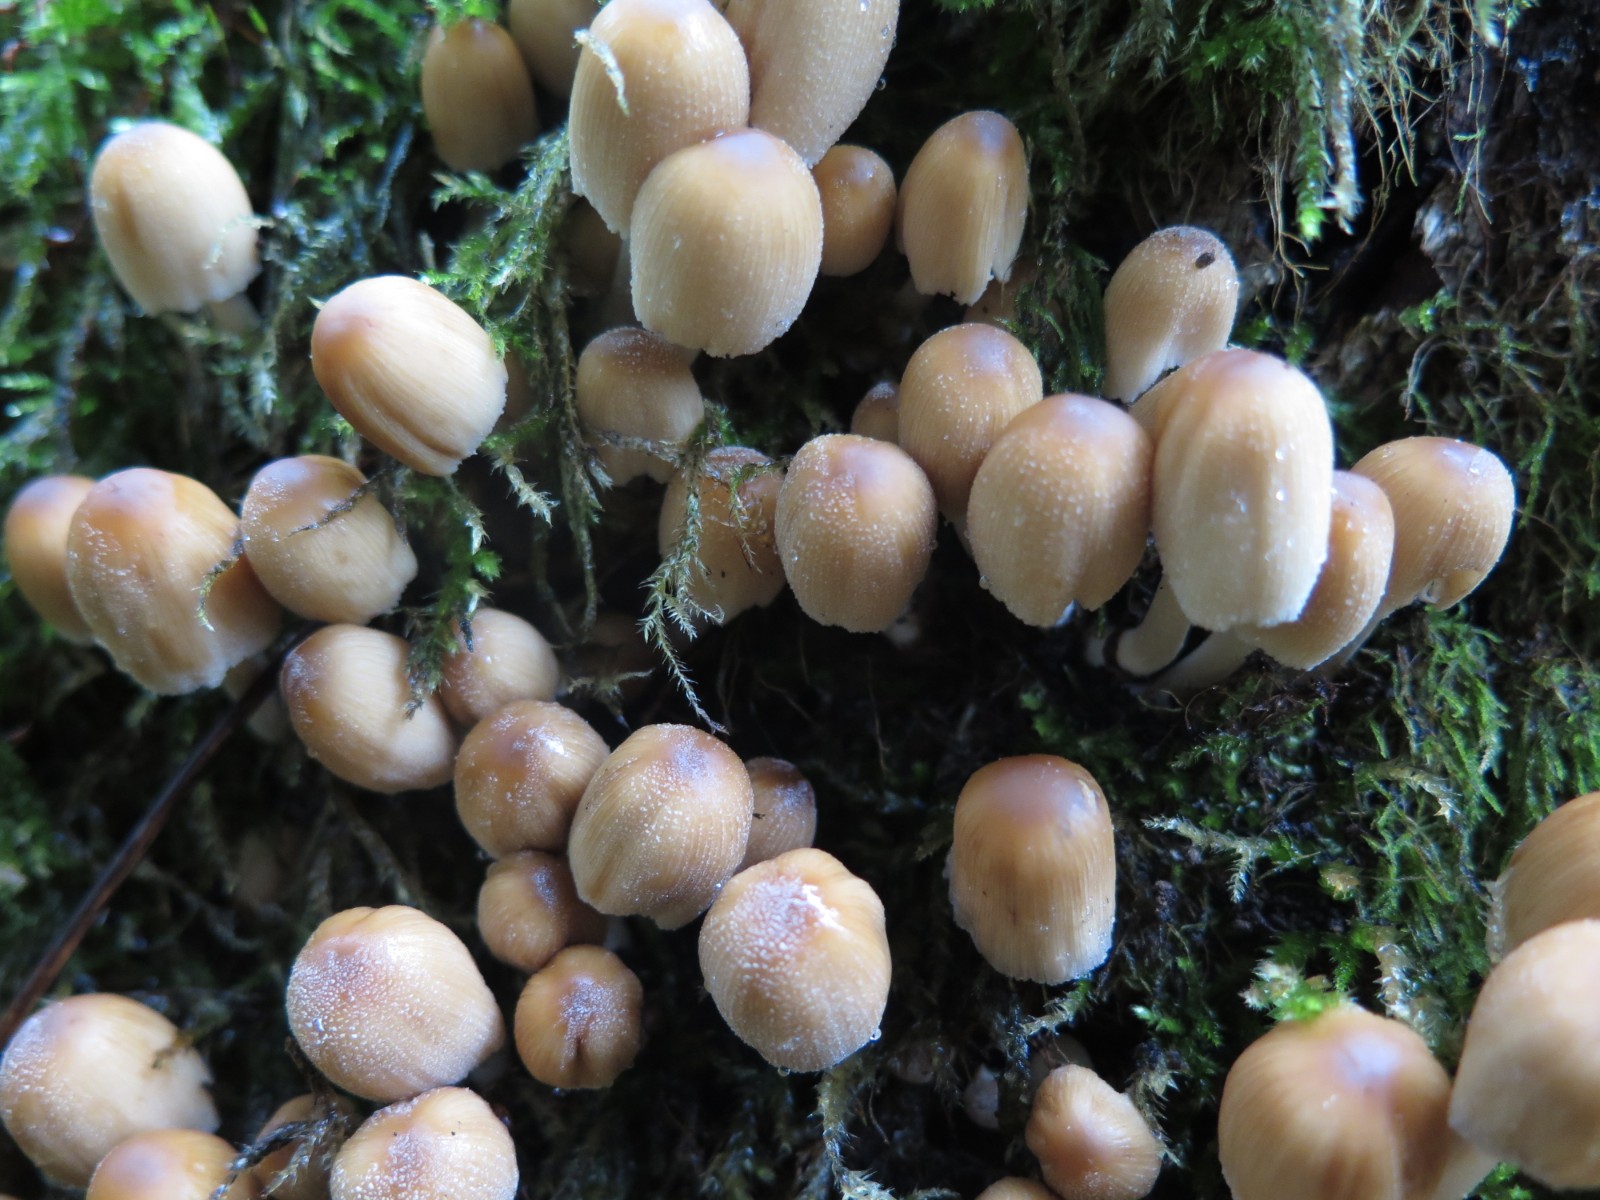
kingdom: Fungi
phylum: Basidiomycota
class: Agaricomycetes
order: Agaricales
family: Psathyrellaceae
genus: Coprinellus
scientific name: Coprinellus micaceus
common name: glimmer-blækhat
